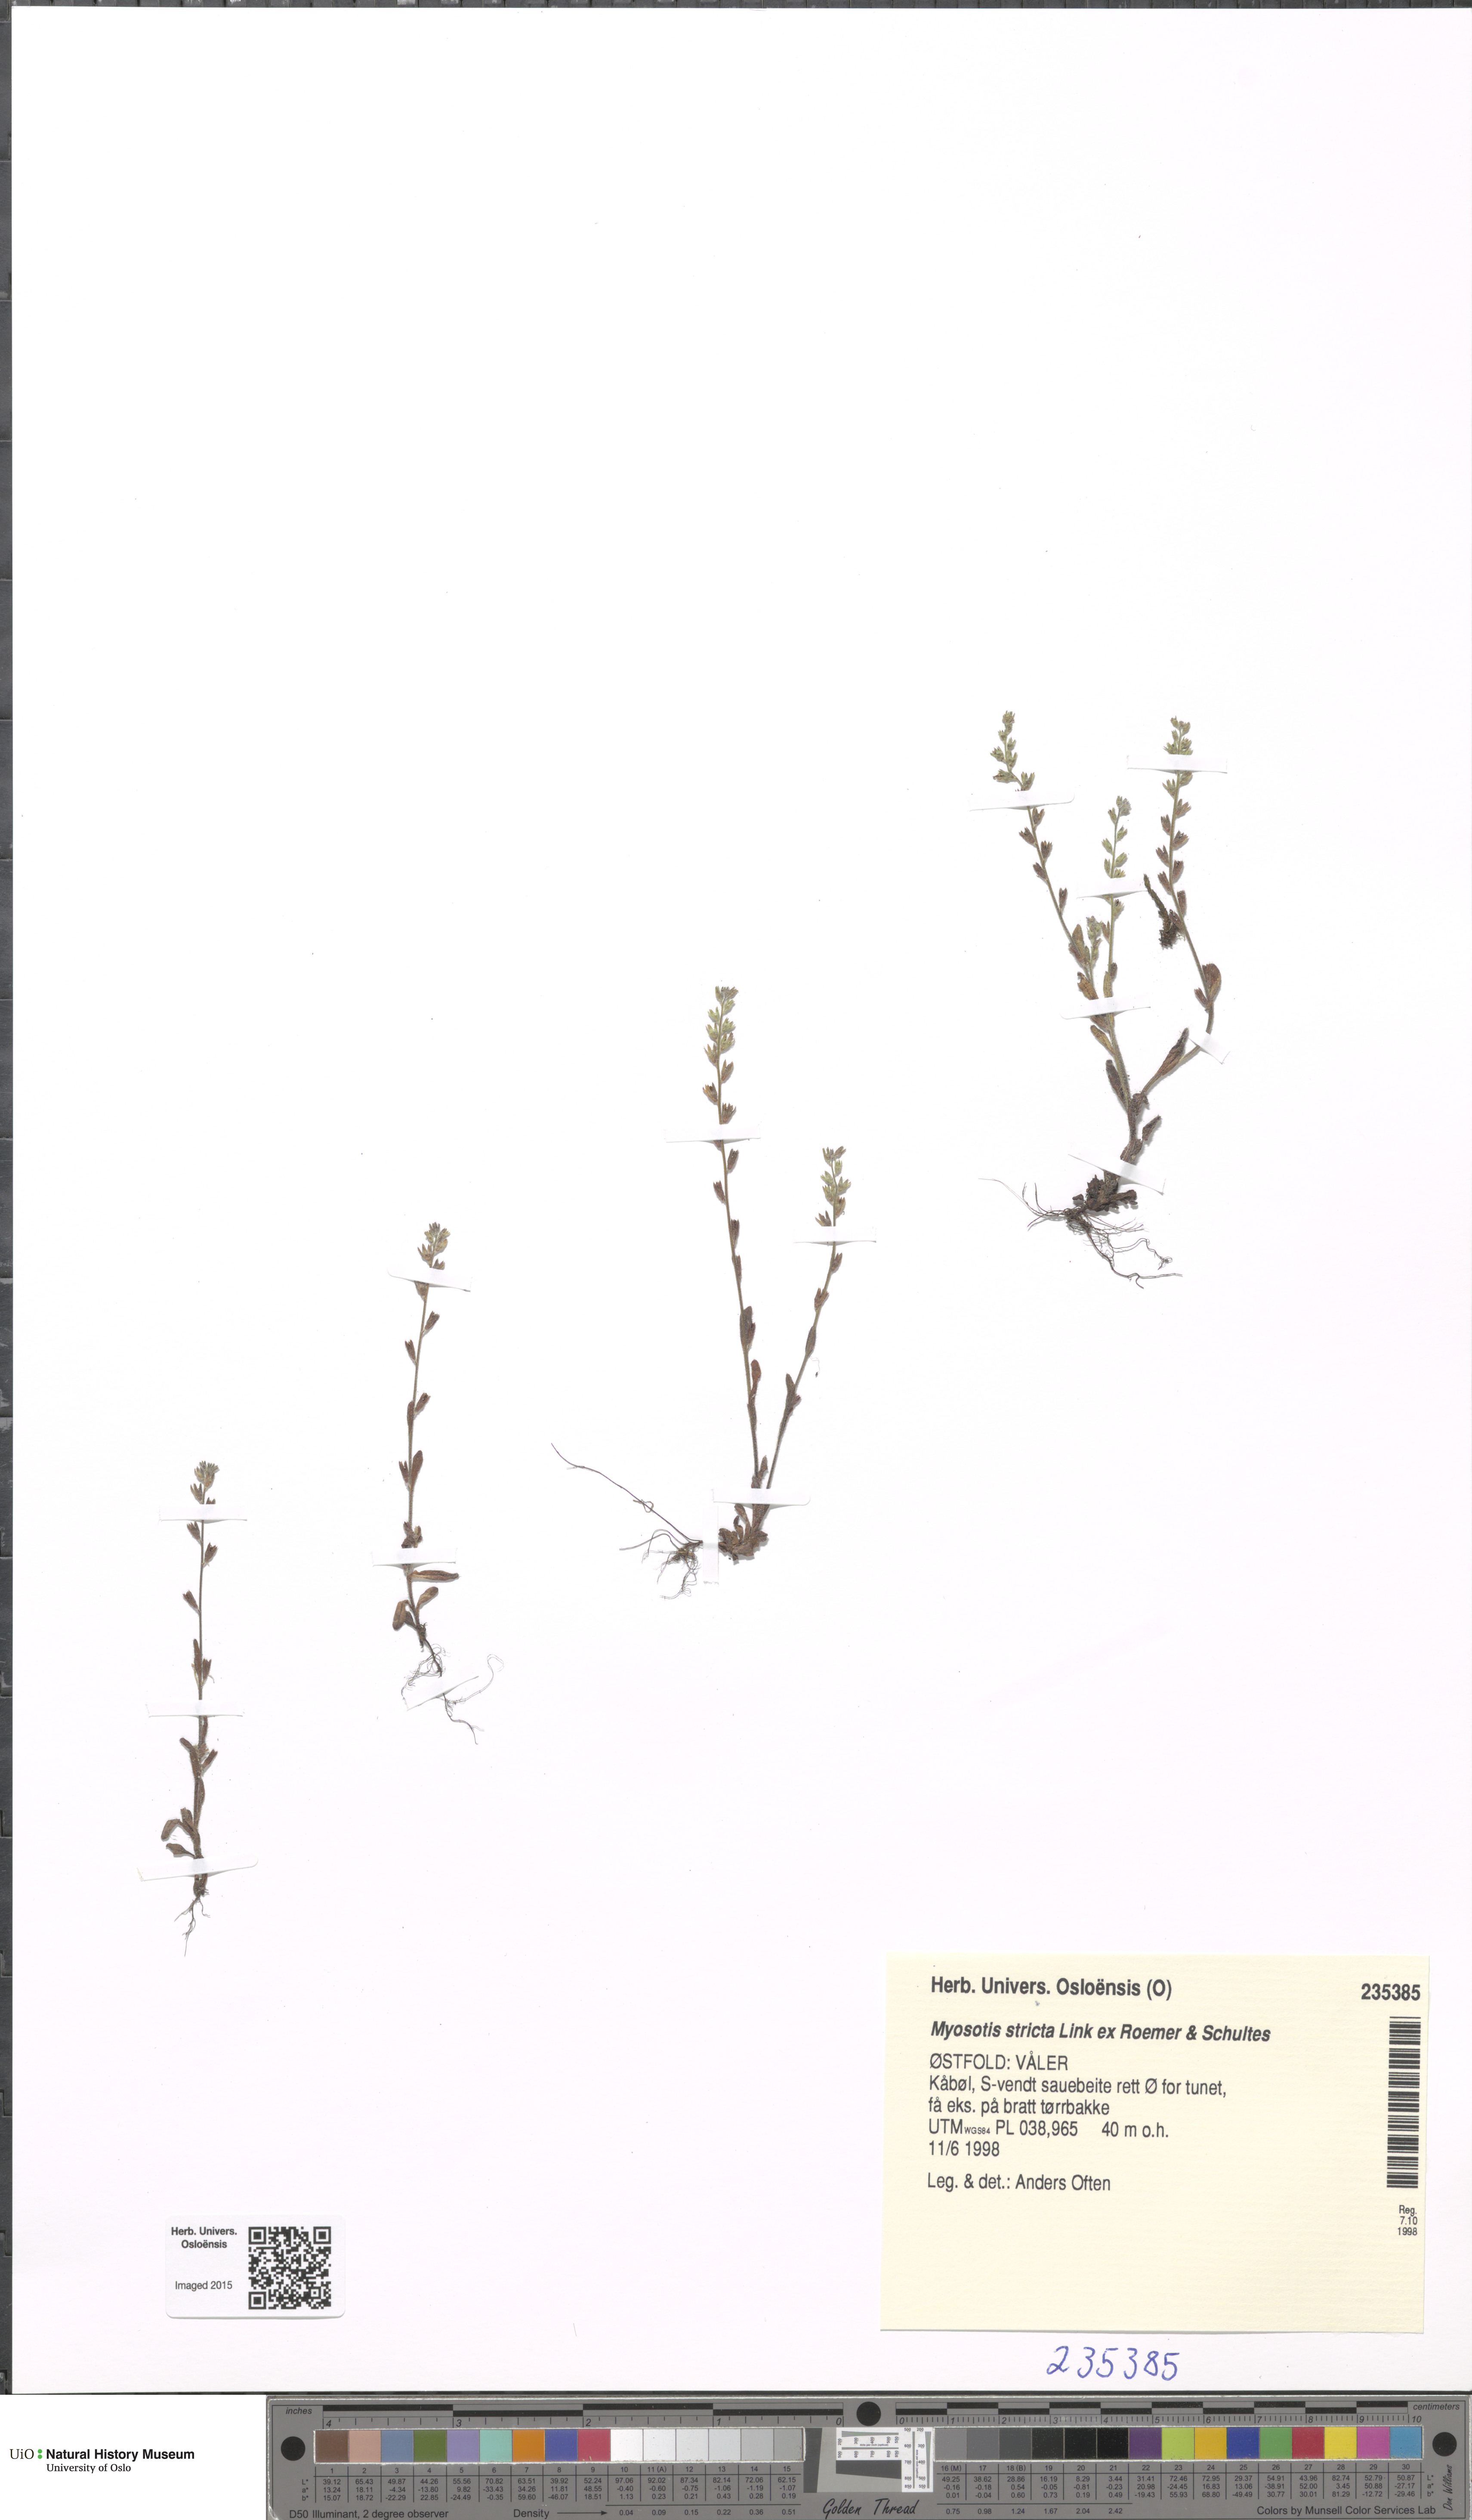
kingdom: Plantae
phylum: Tracheophyta
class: Magnoliopsida
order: Boraginales
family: Boraginaceae
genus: Myosotis
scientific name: Myosotis stricta
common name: Strict forget-me-not
